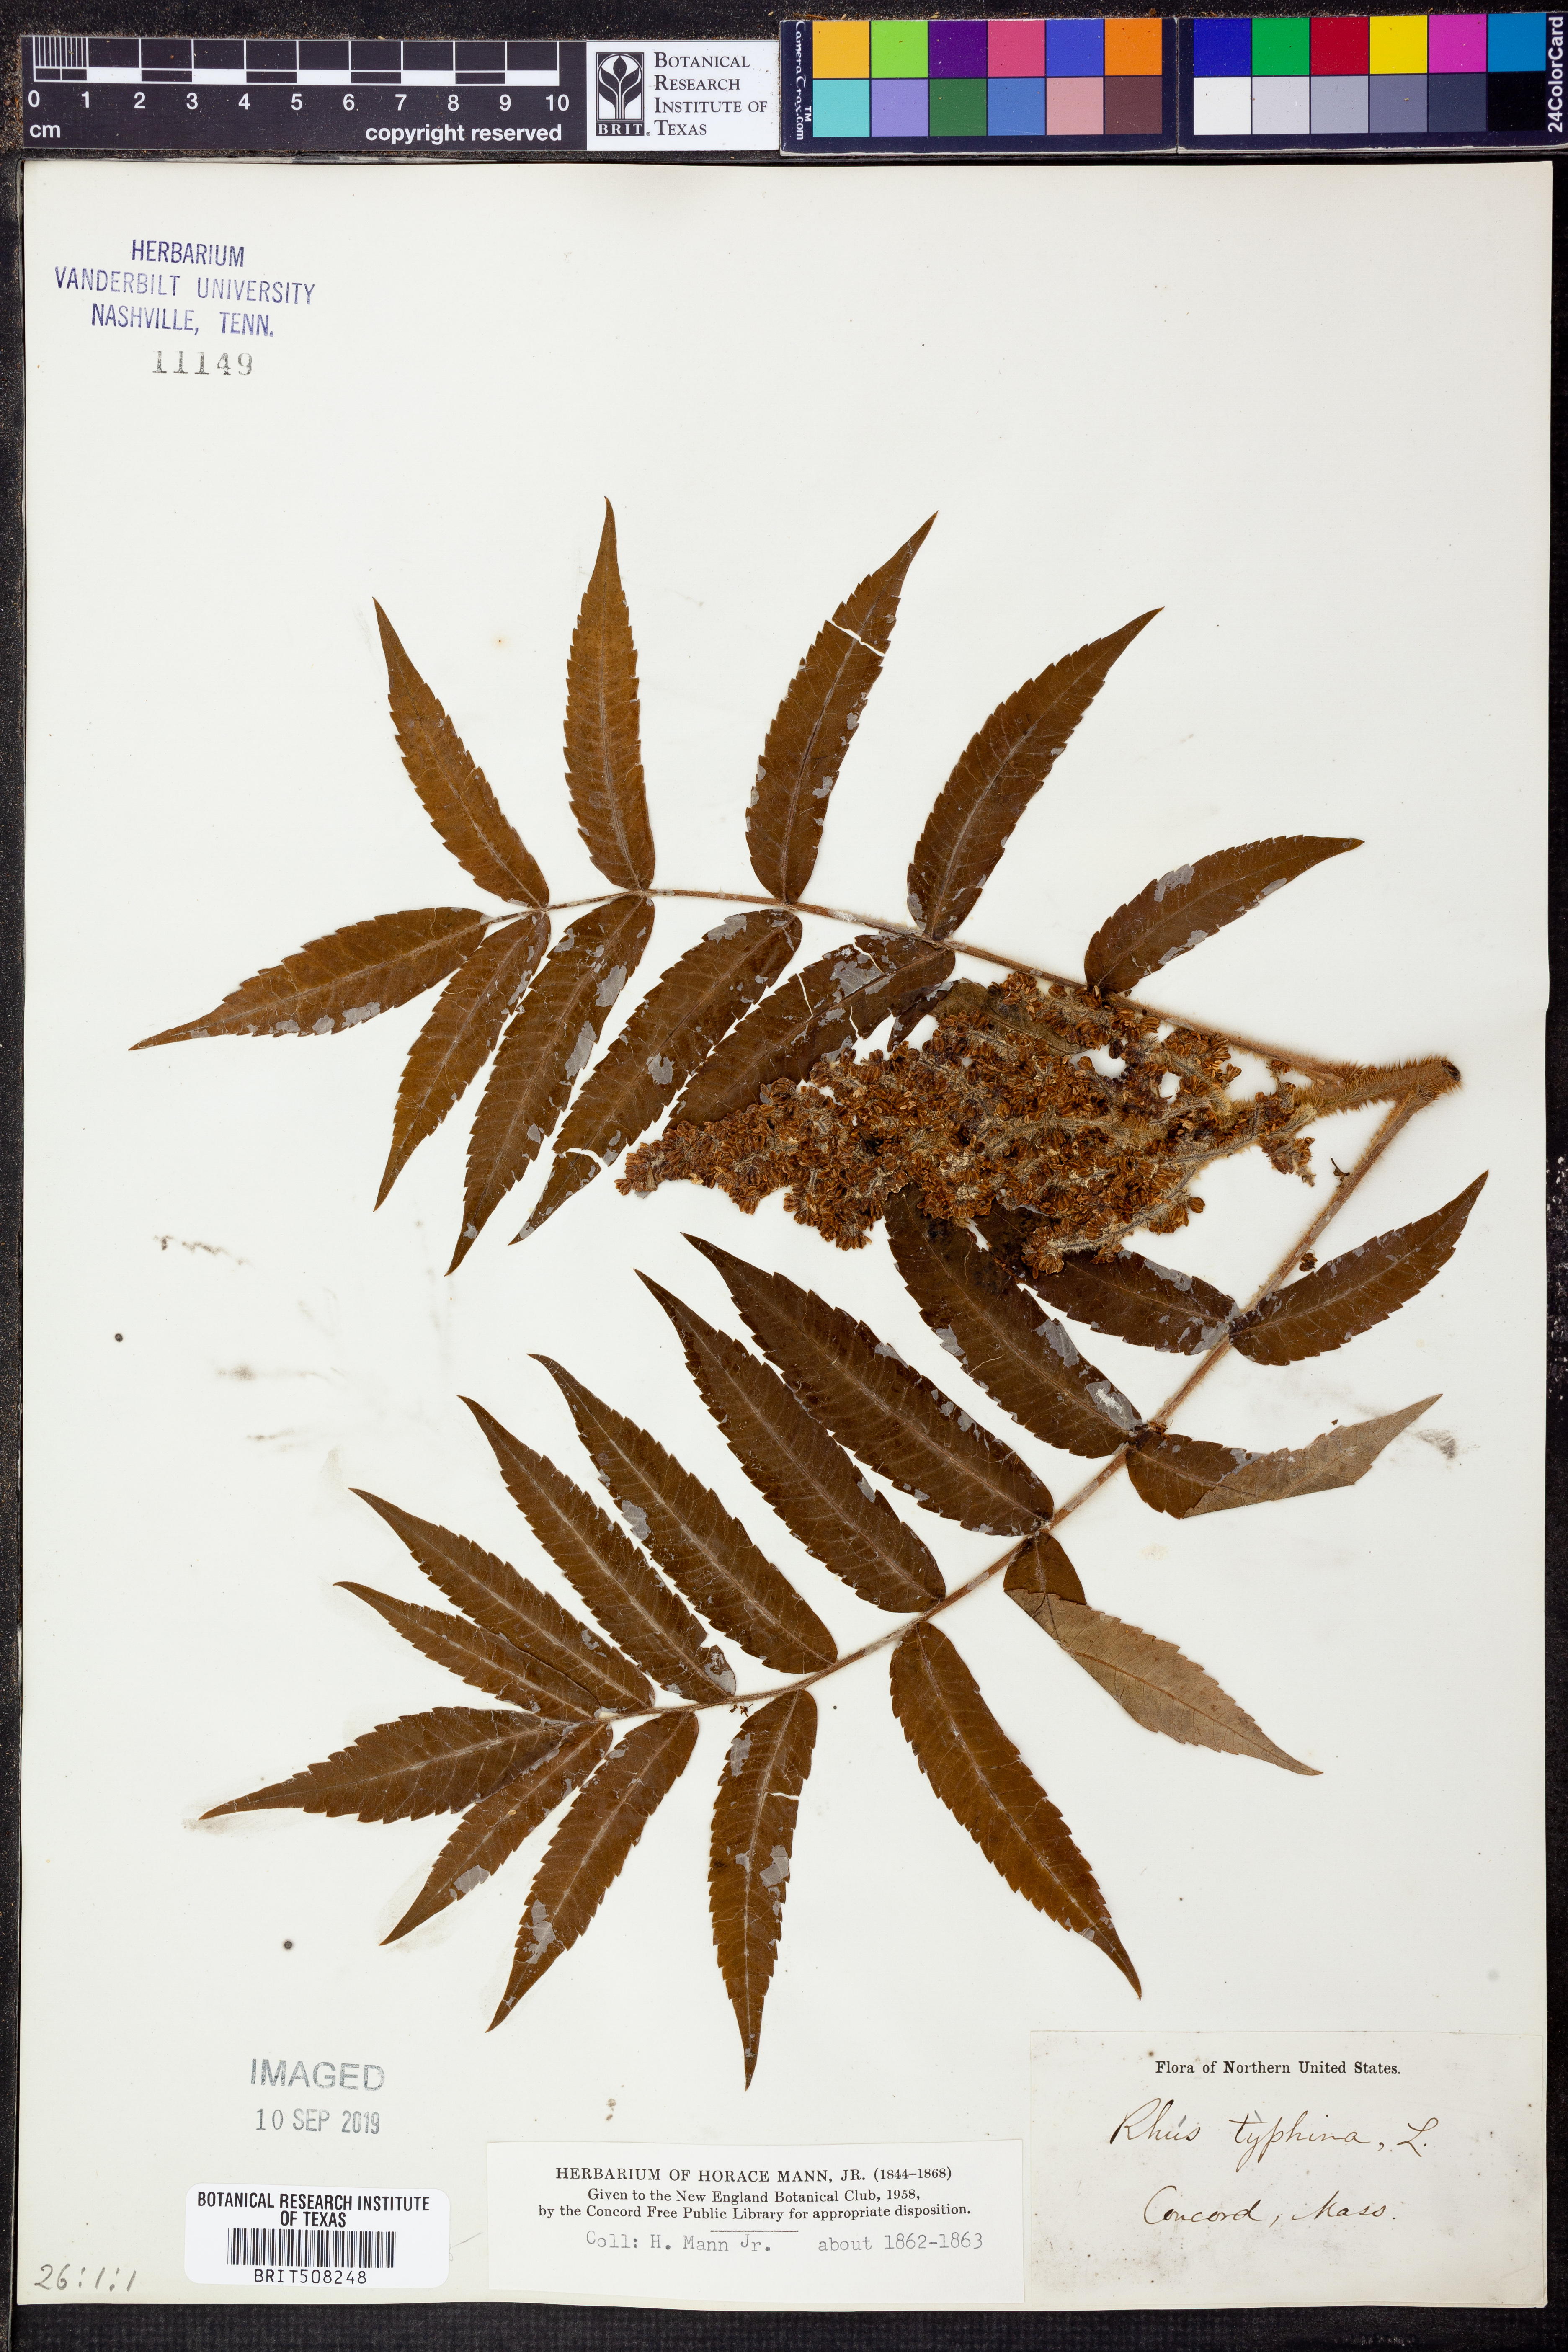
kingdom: Plantae
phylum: Tracheophyta
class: Magnoliopsida
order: Sapindales
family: Anacardiaceae
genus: Rhus
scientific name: Rhus typhina
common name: Staghorn sumac
